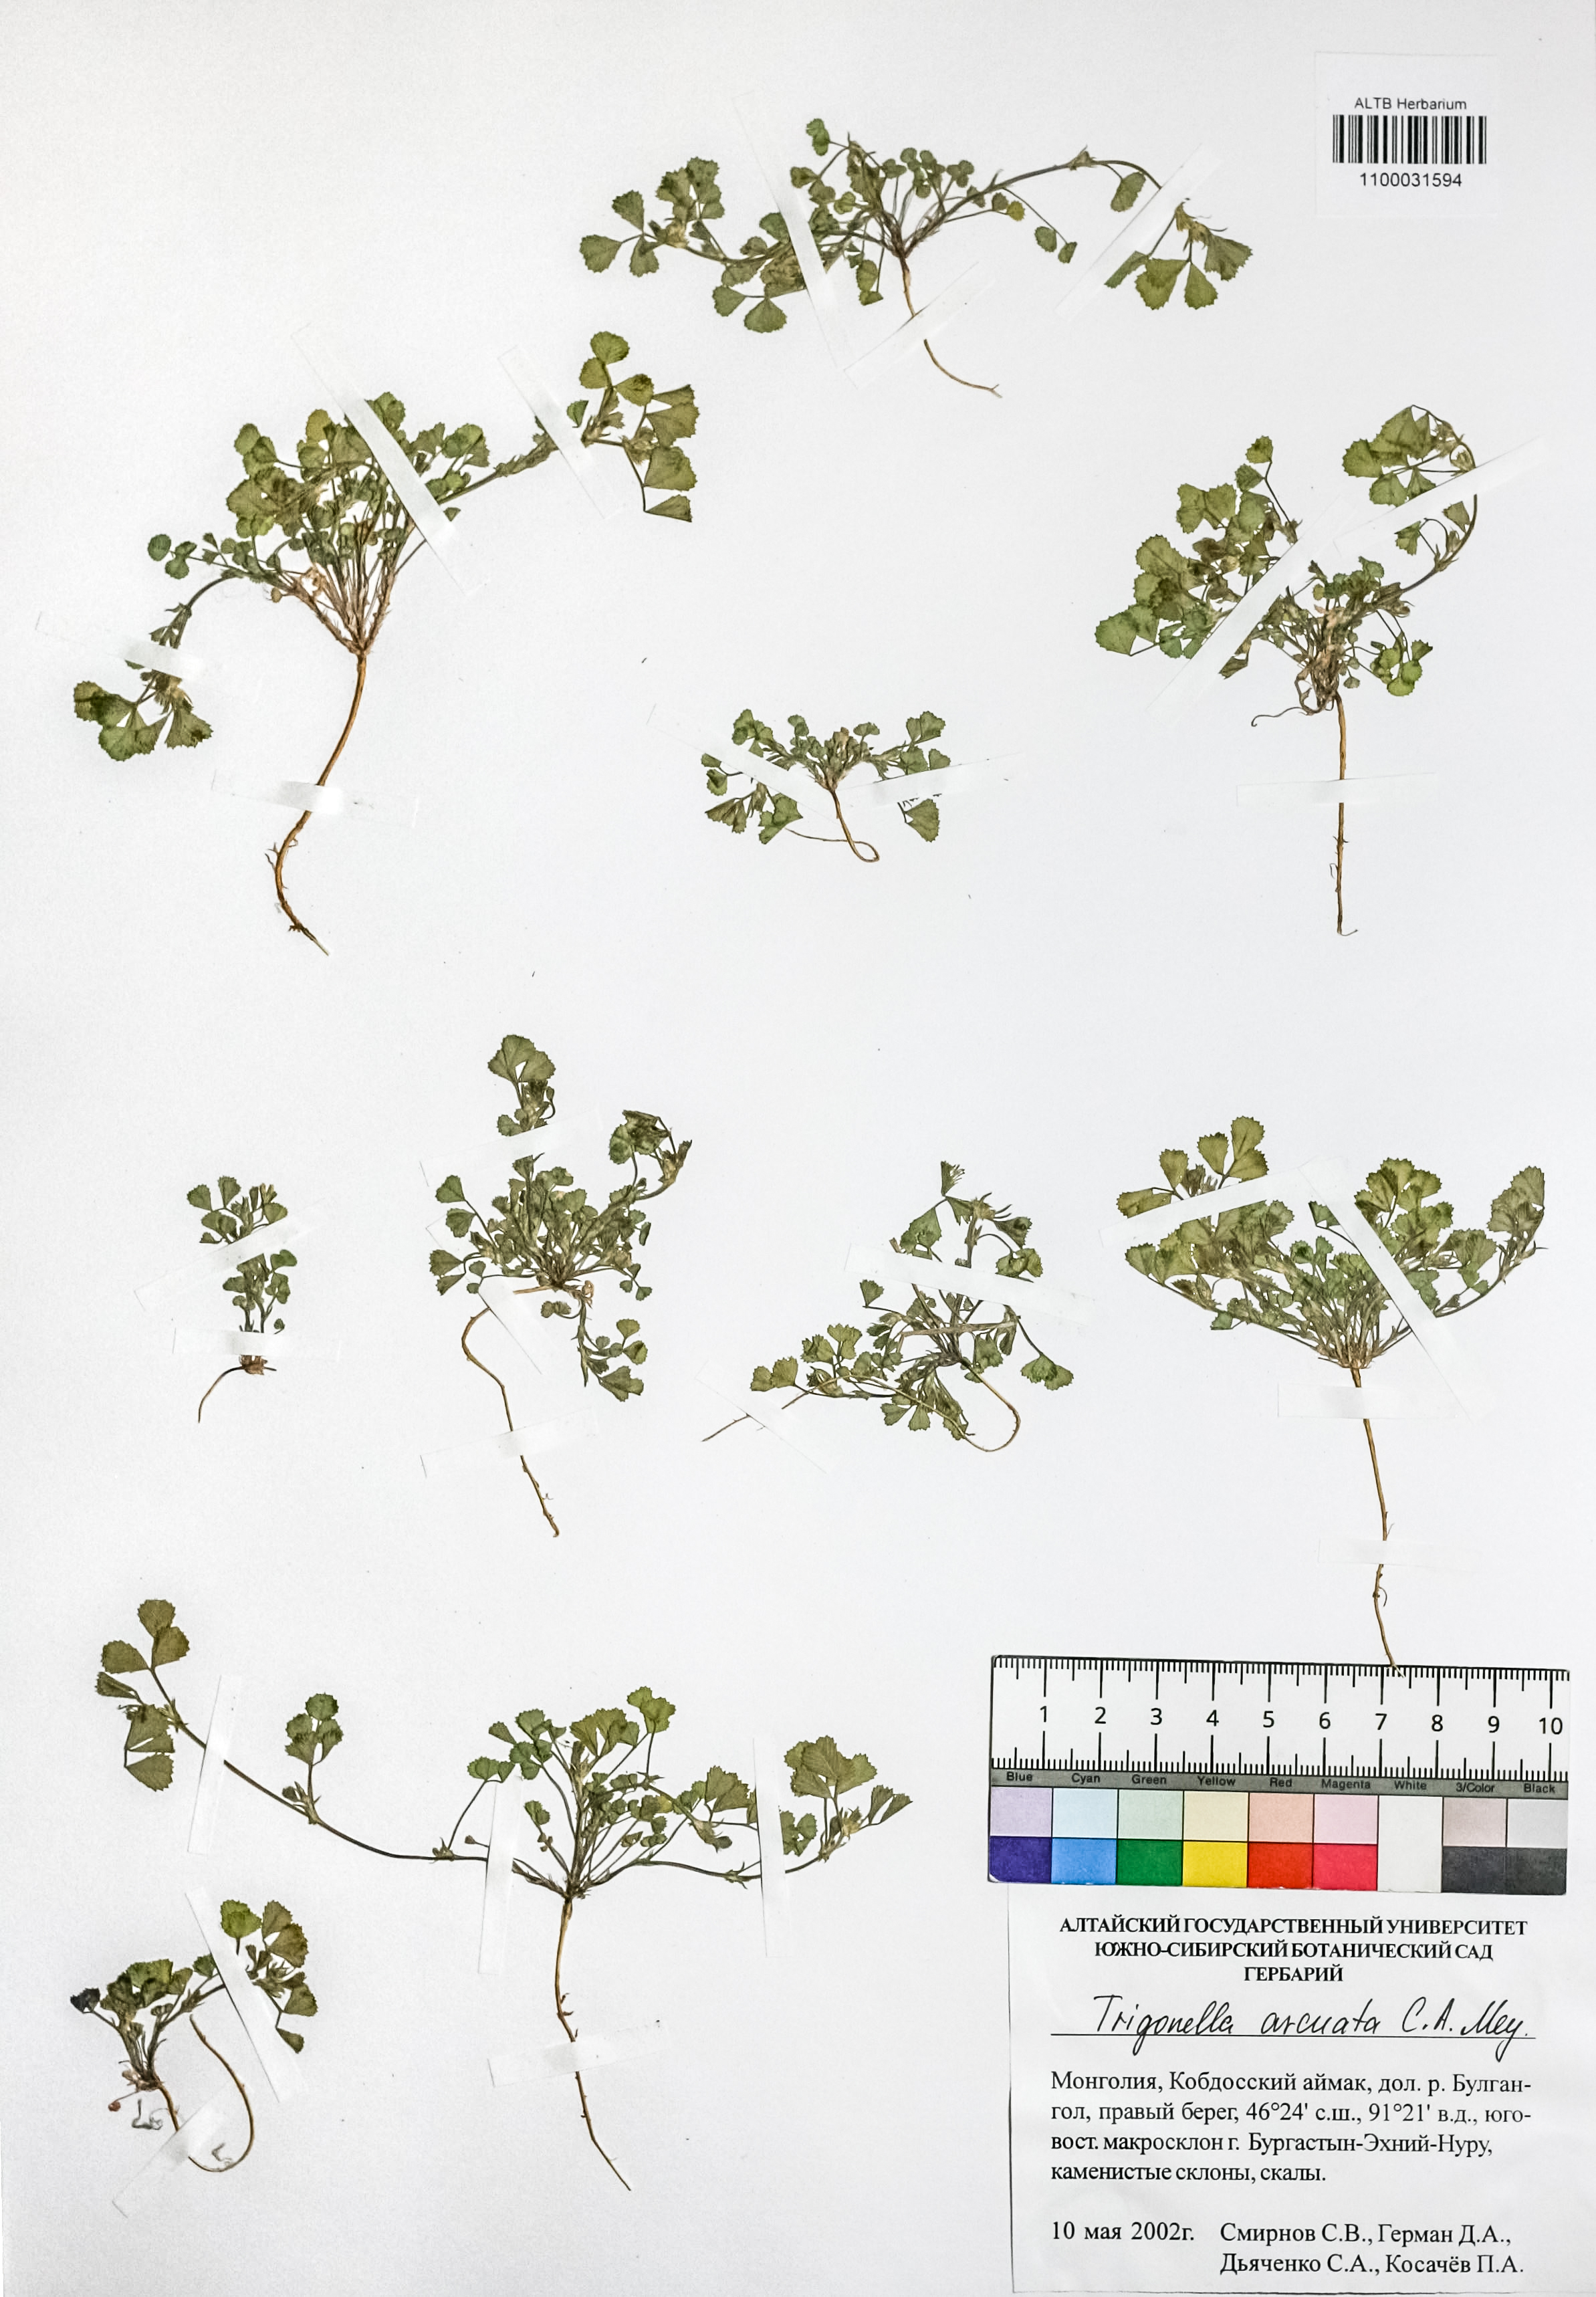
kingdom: Plantae
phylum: Tracheophyta
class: Magnoliopsida
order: Fabales
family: Fabaceae
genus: Medicago
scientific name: Medicago medicaginoides
